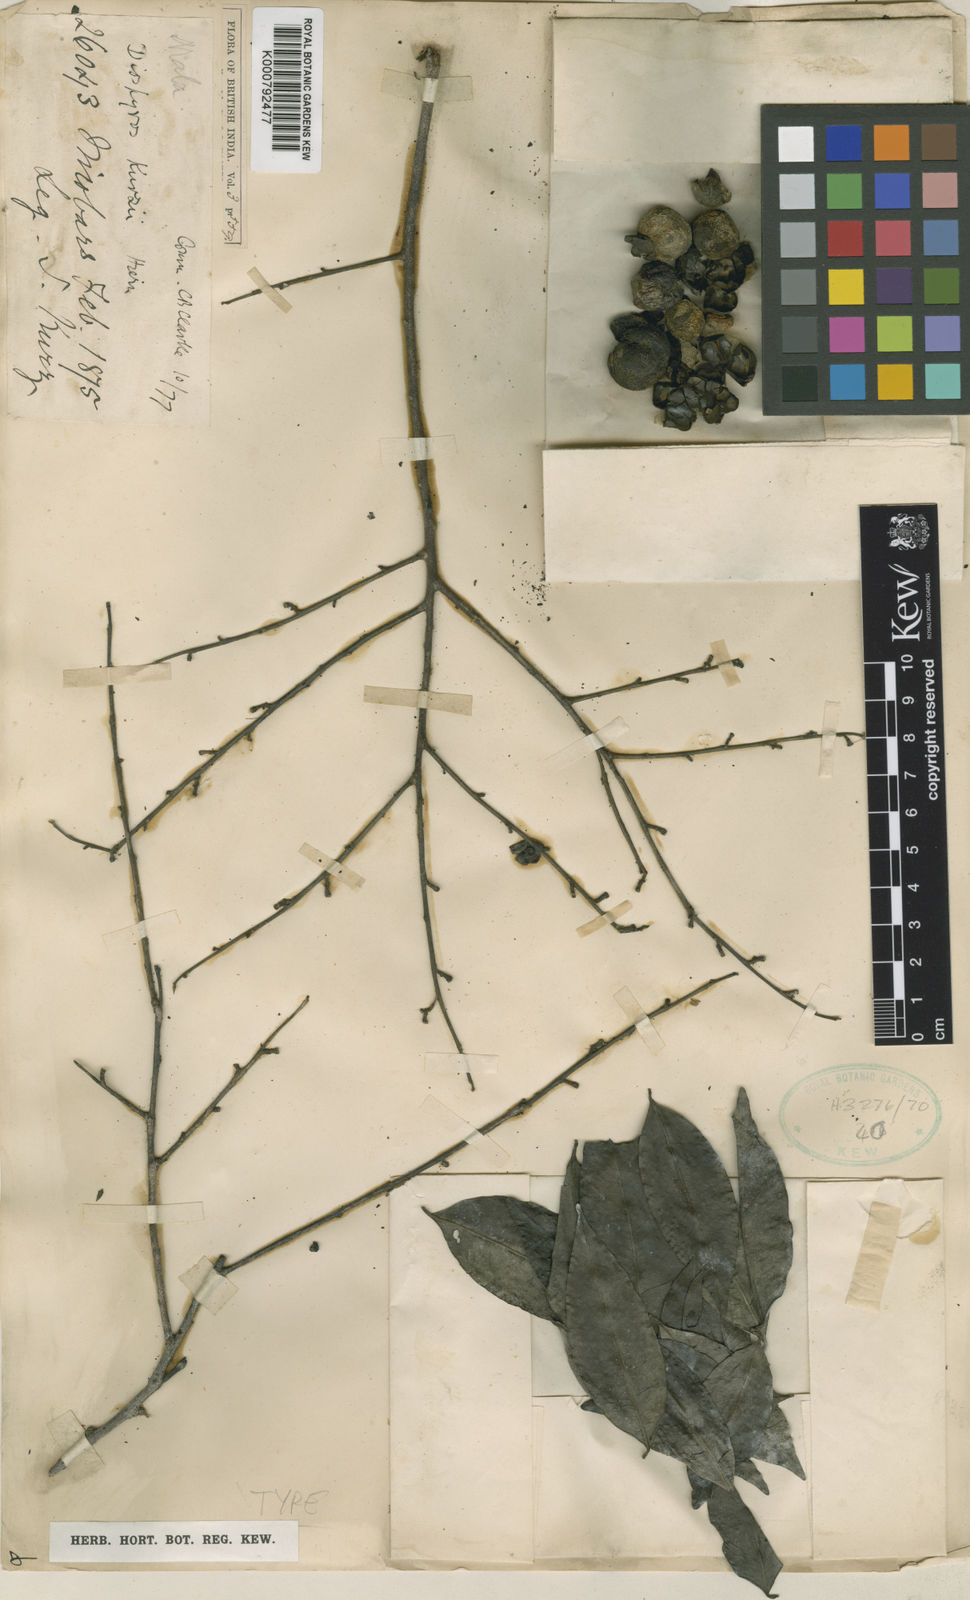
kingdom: Plantae
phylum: Tracheophyta
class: Magnoliopsida
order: Ericales
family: Ebenaceae
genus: Diospyros
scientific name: Diospyros kurzii
